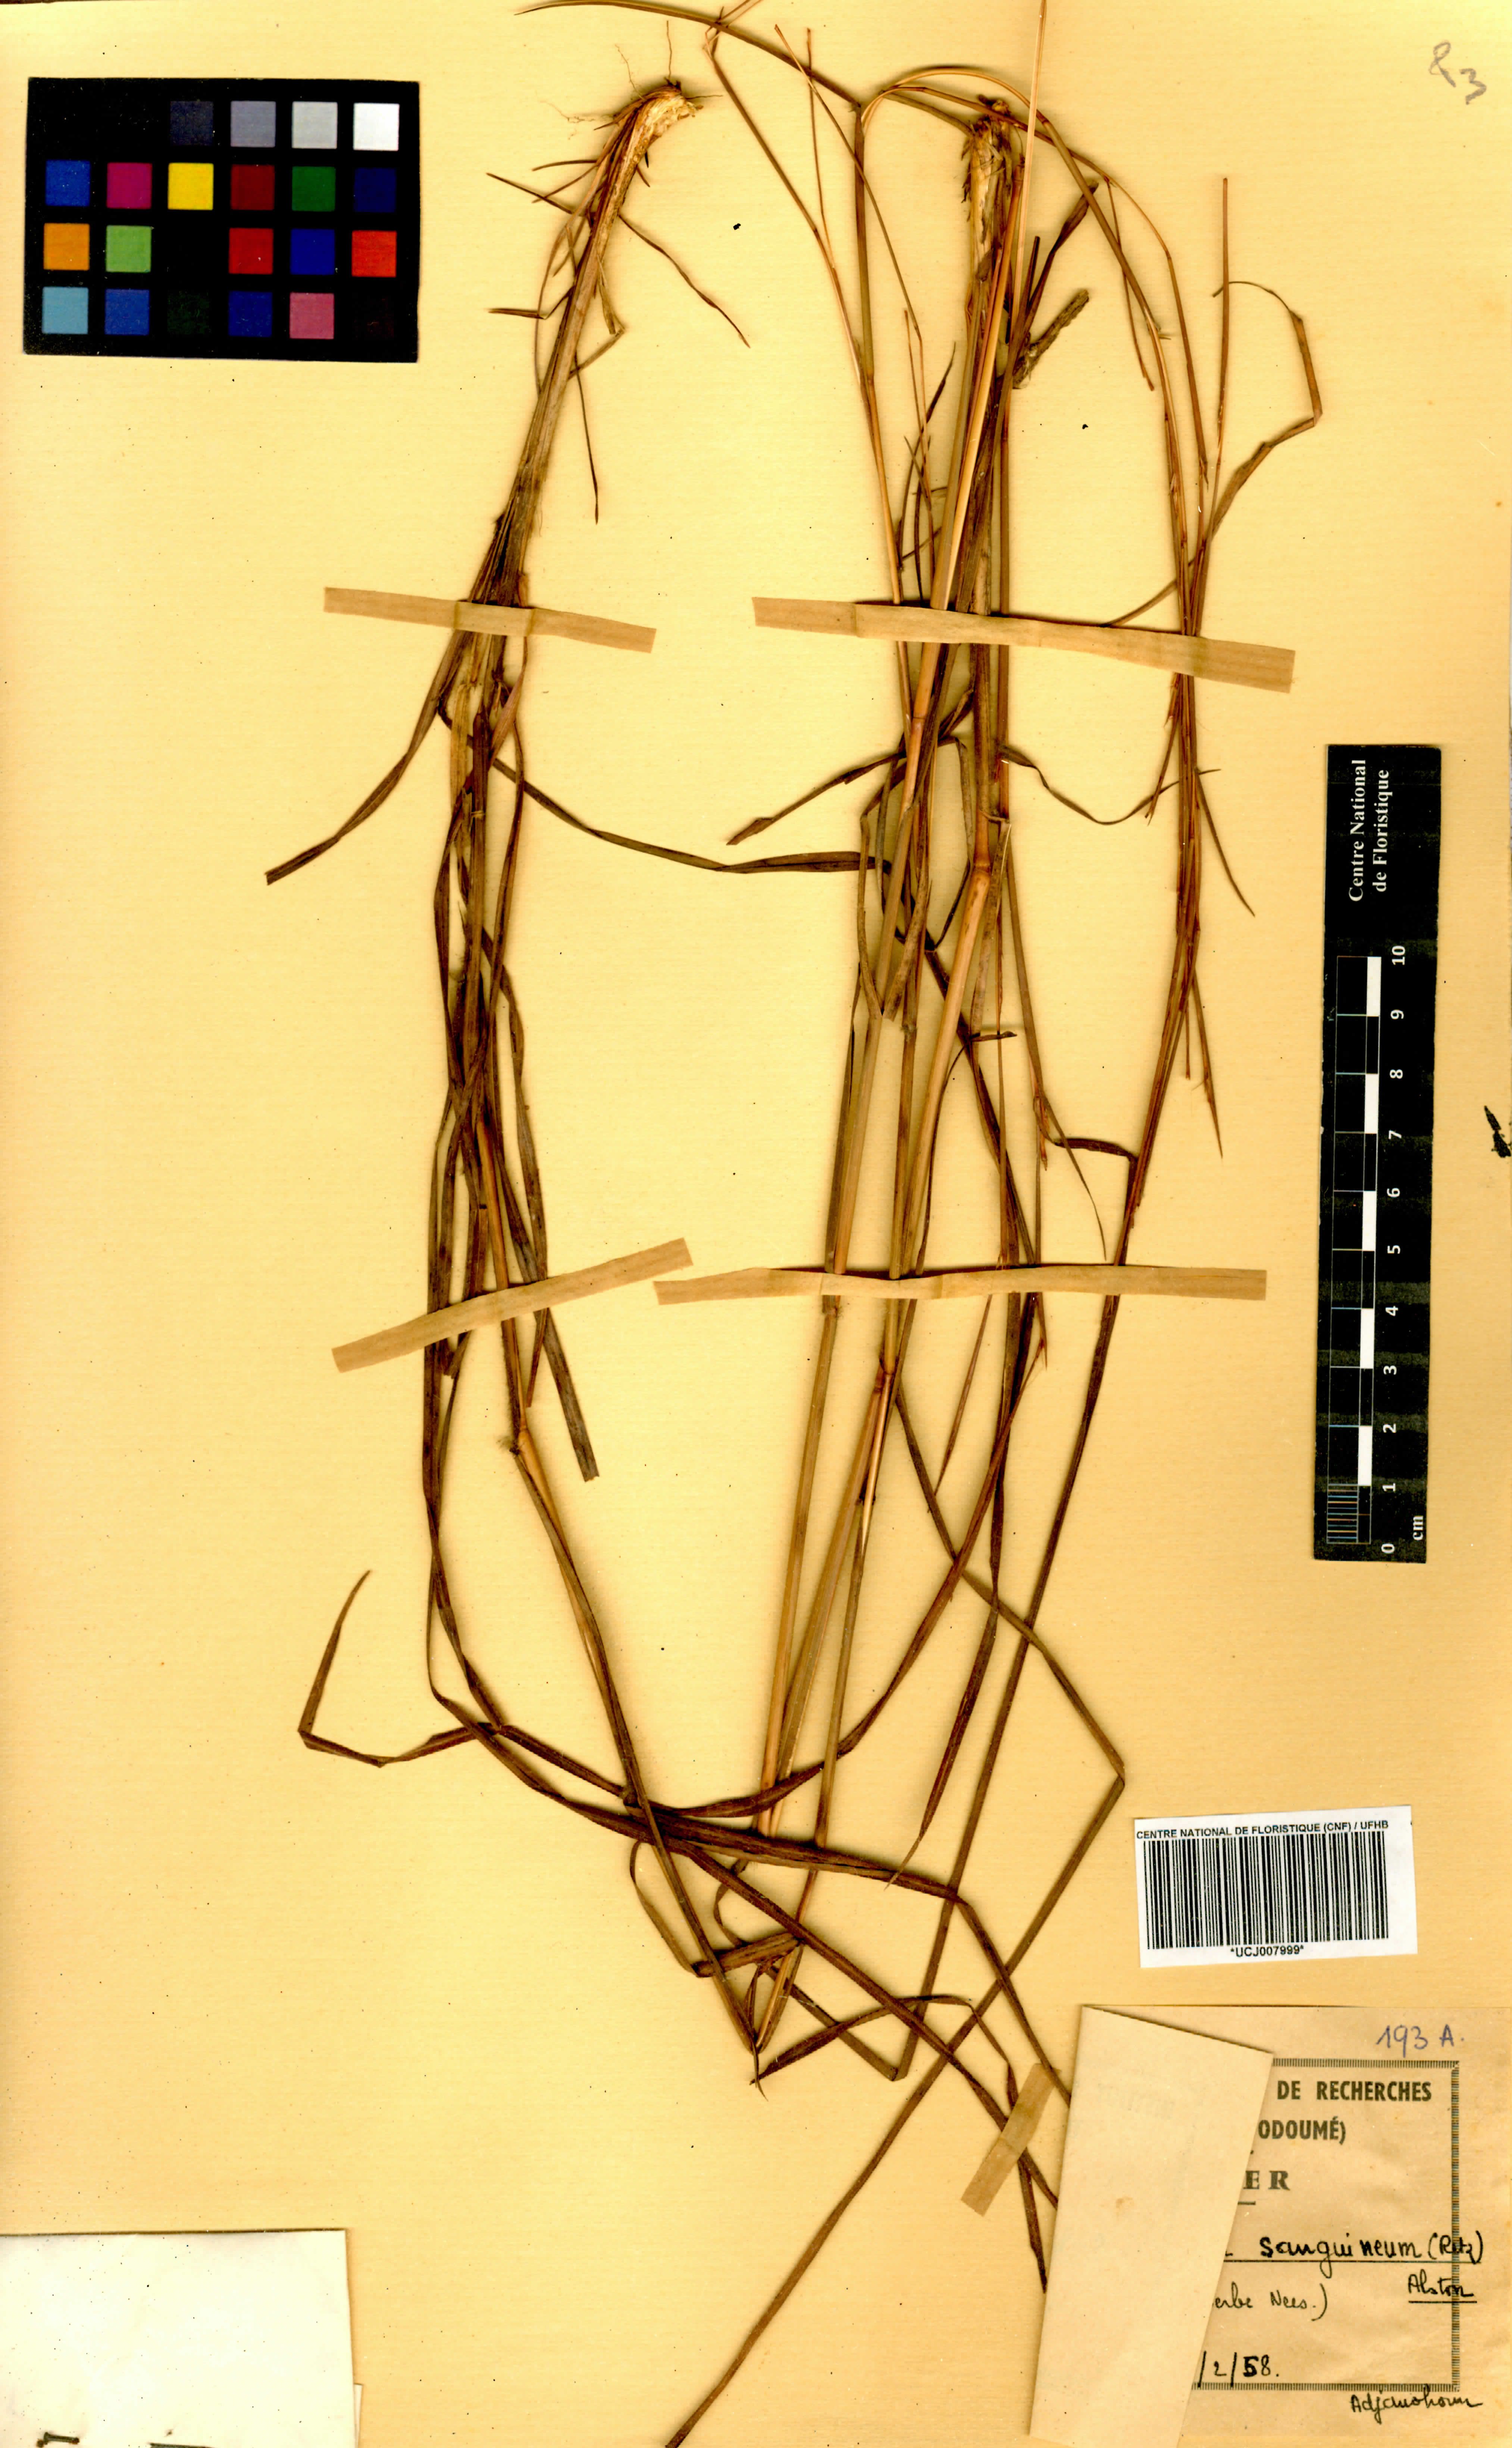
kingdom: Plantae
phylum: Tracheophyta
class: Liliopsida
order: Poales
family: Poaceae
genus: Schizachyrium
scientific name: Schizachyrium sanguineum
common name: Crimson bluestem
